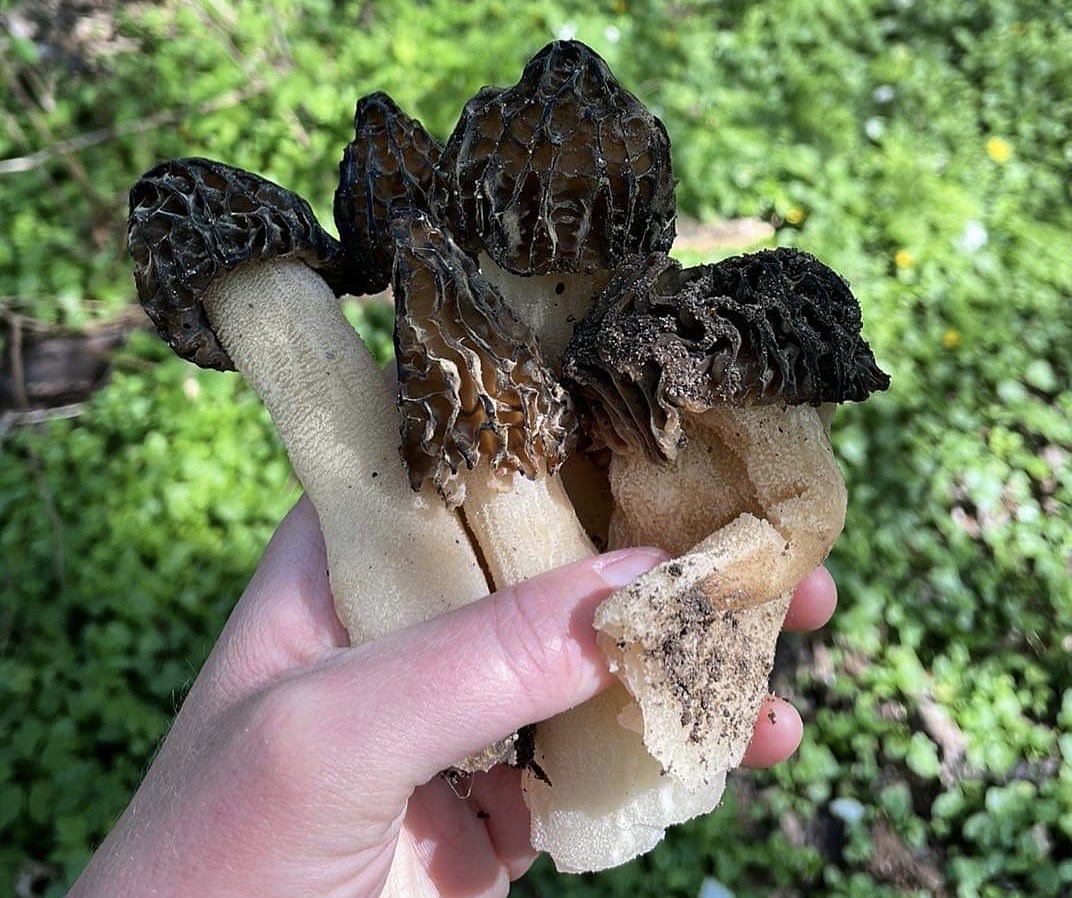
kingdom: Fungi
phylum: Ascomycota
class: Pezizomycetes
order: Pezizales
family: Morchellaceae
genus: Morchella
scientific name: Morchella semilibera
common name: hætte-morkel
